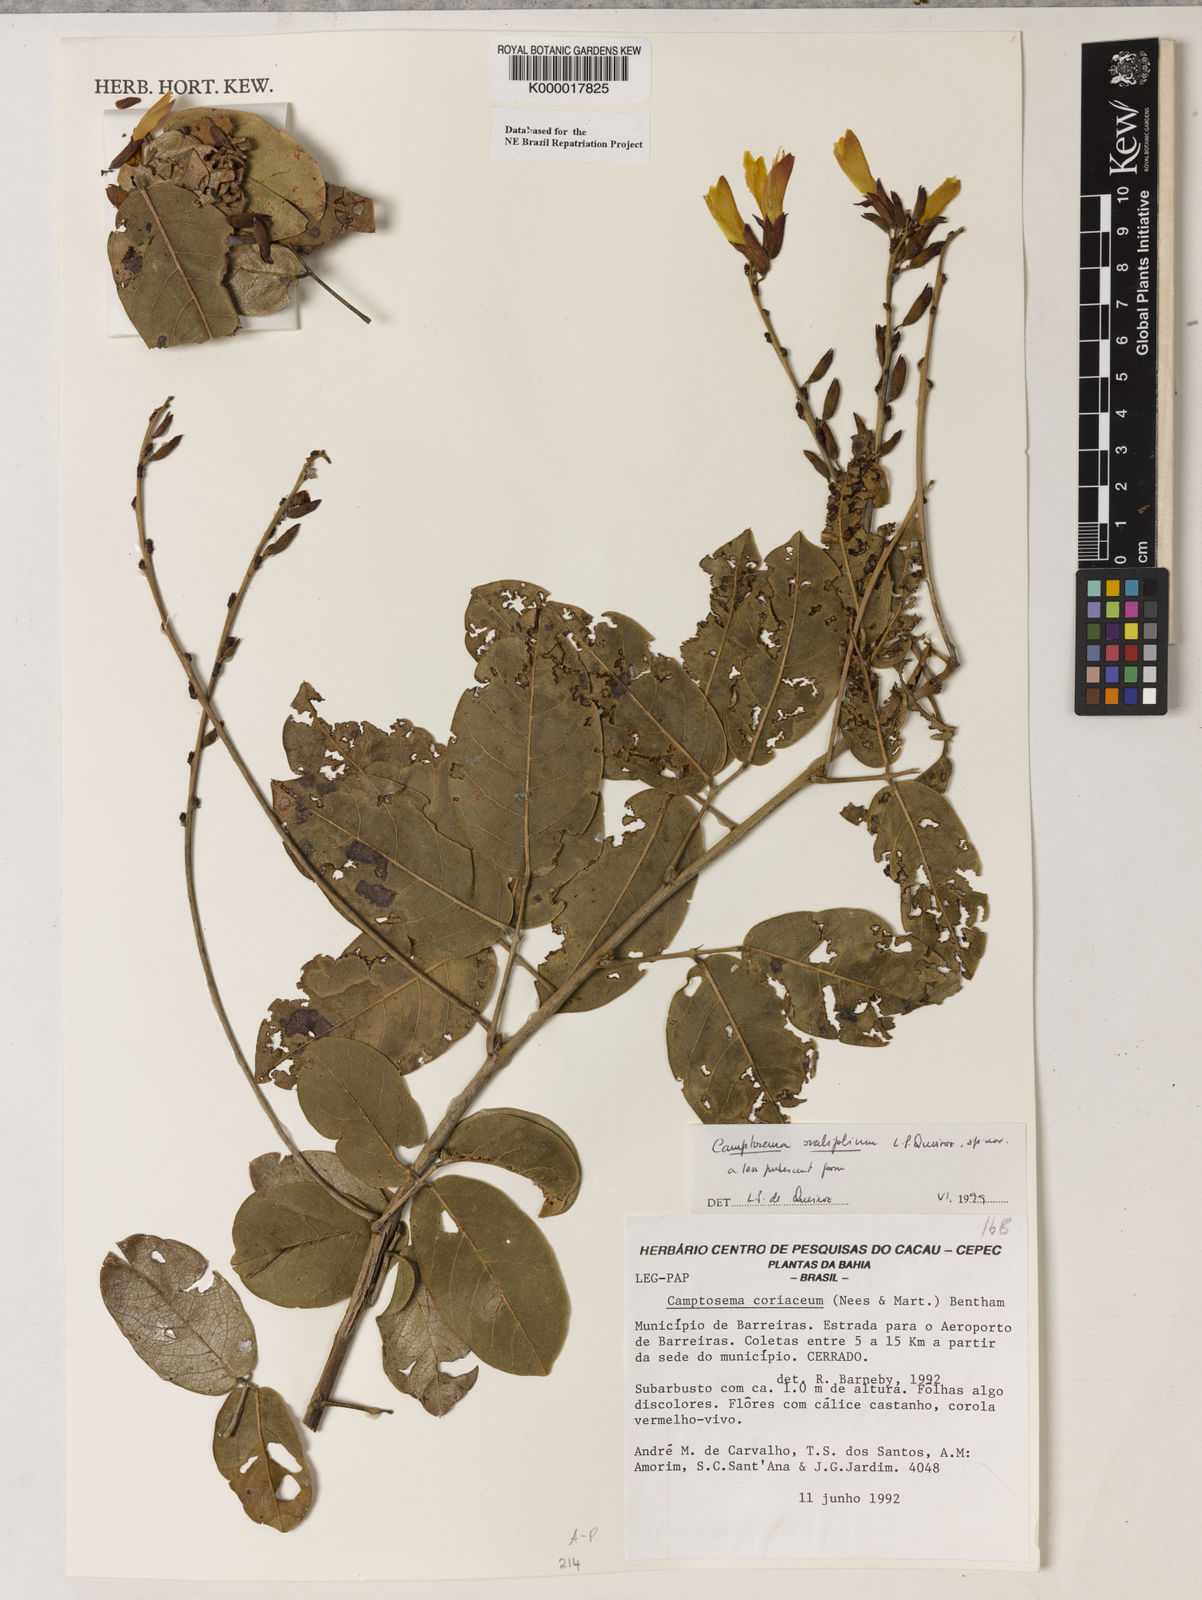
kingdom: Plantae
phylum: Tracheophyta
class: Magnoliopsida
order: Fabales
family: Fabaceae
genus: Camptosema
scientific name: Camptosema
